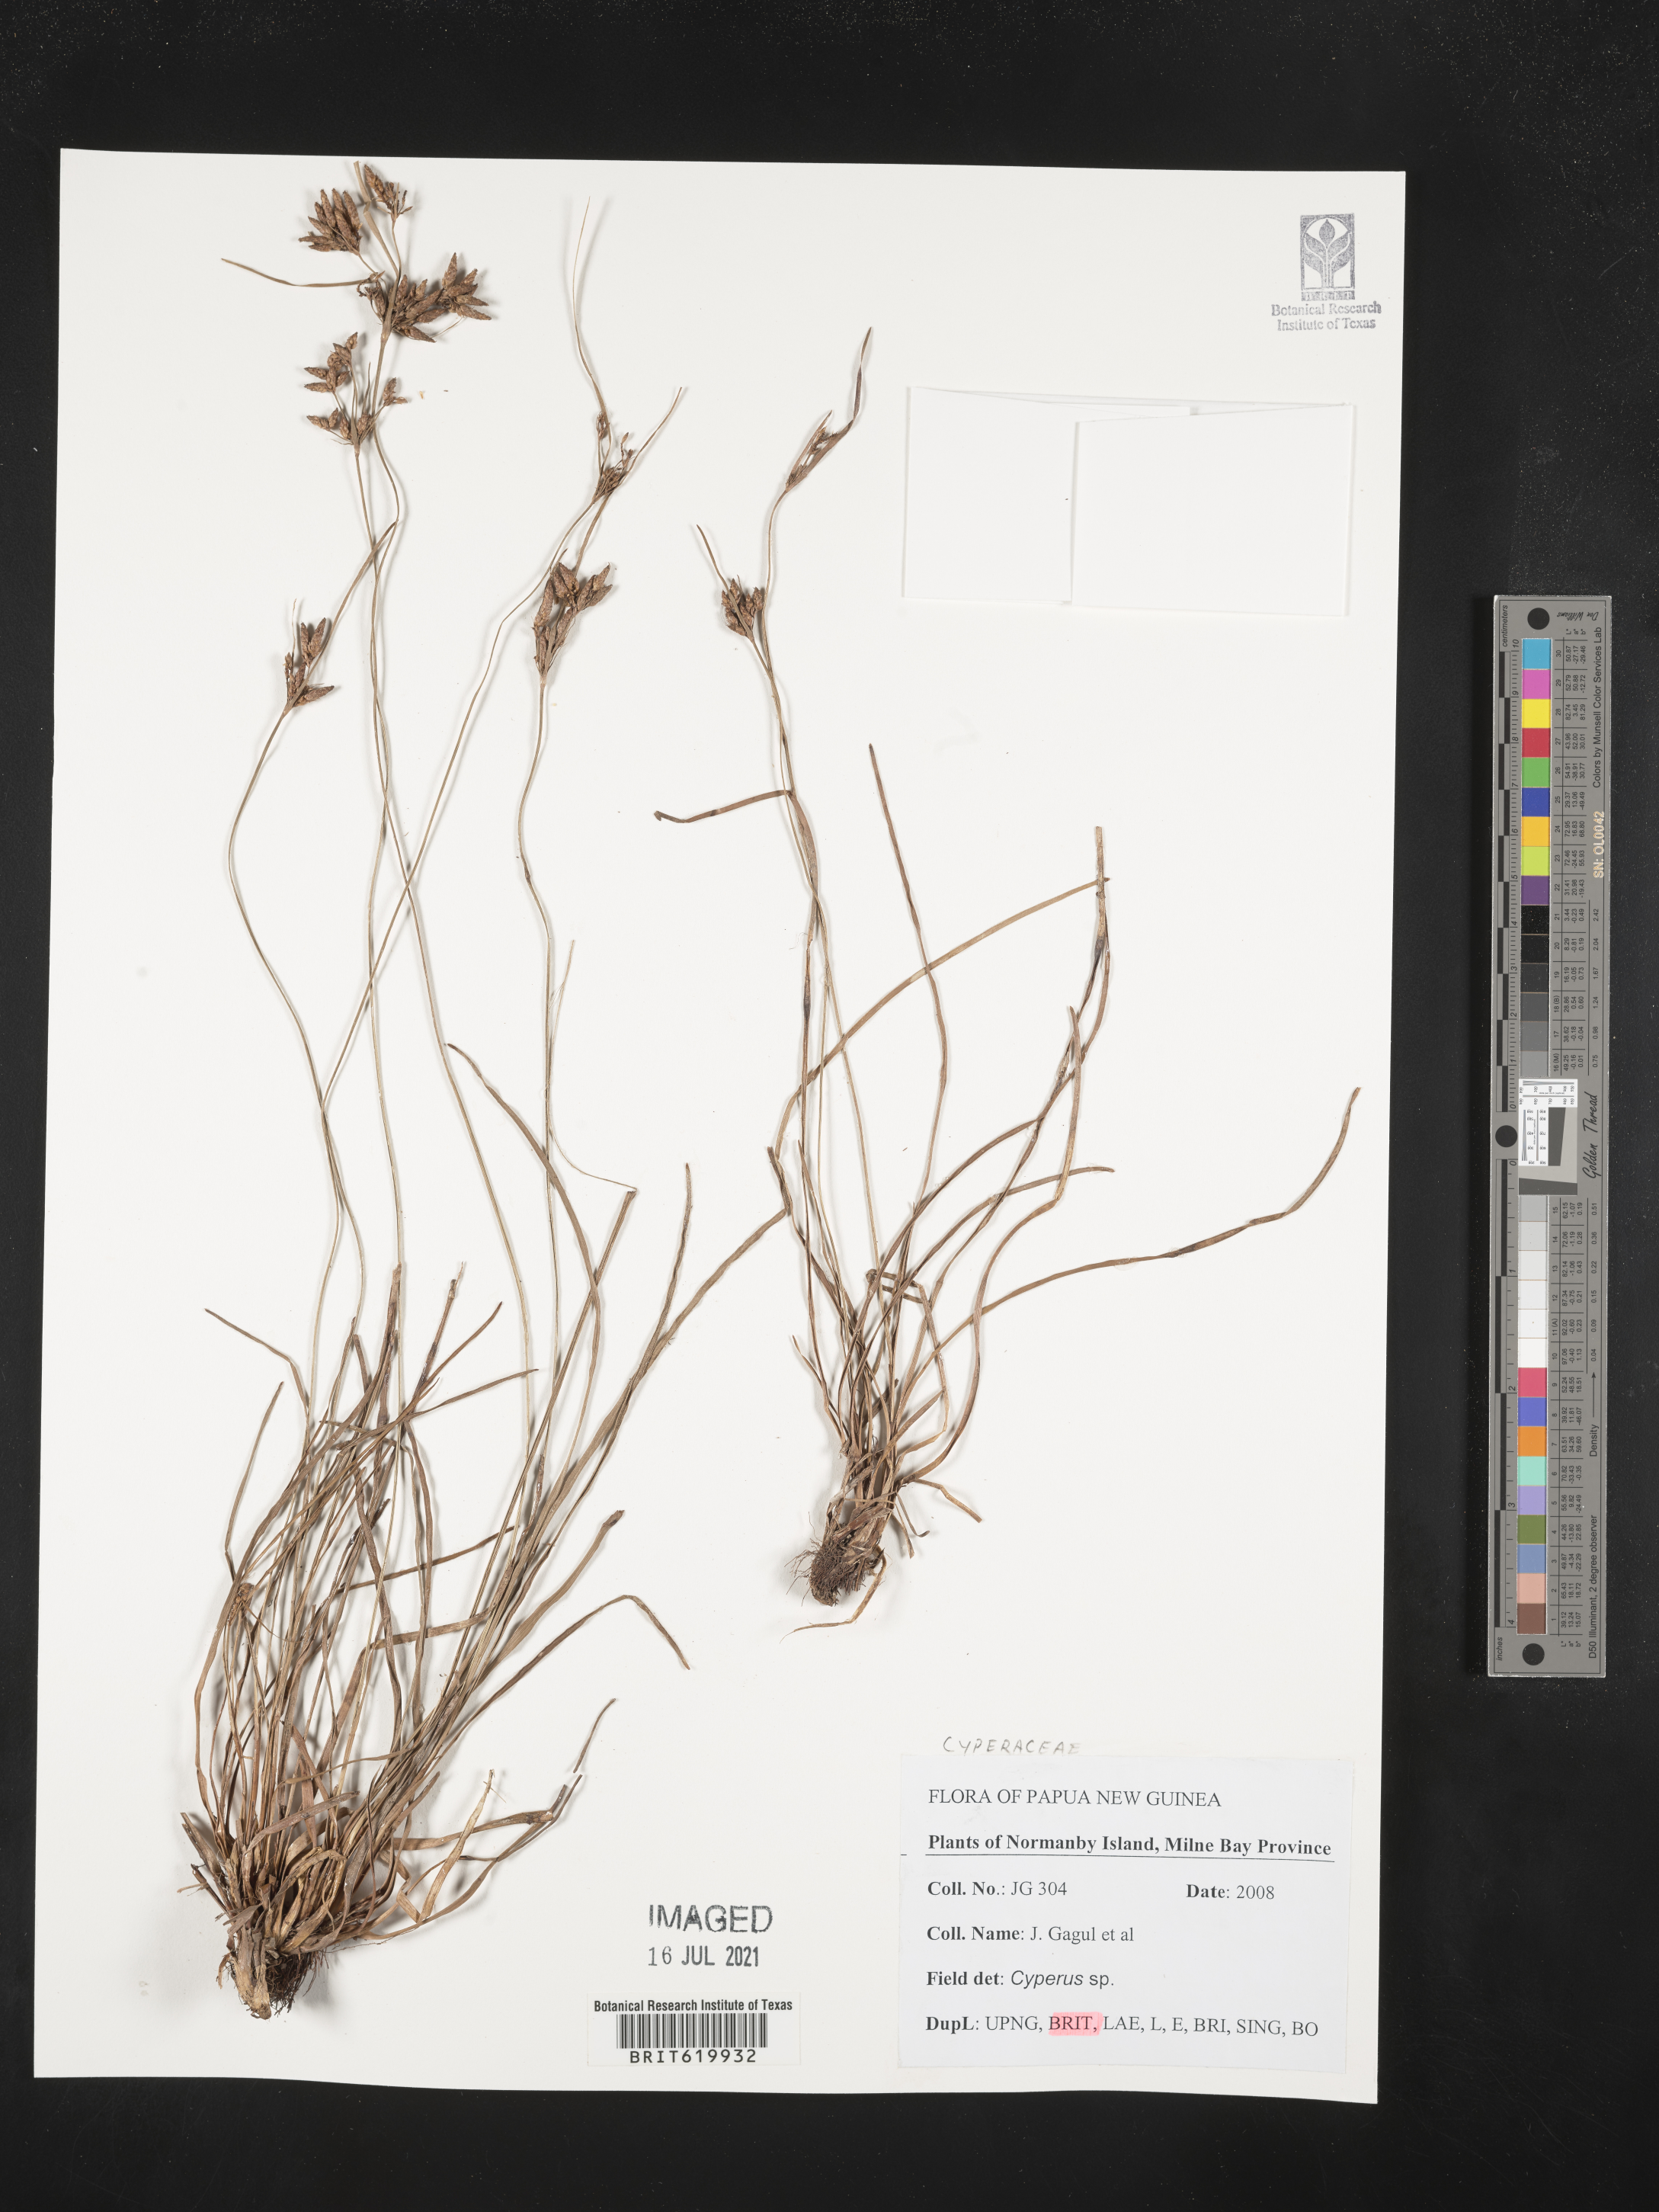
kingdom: Plantae
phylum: Tracheophyta
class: Liliopsida
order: Poales
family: Cyperaceae
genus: Cyperus
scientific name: Cyperus
